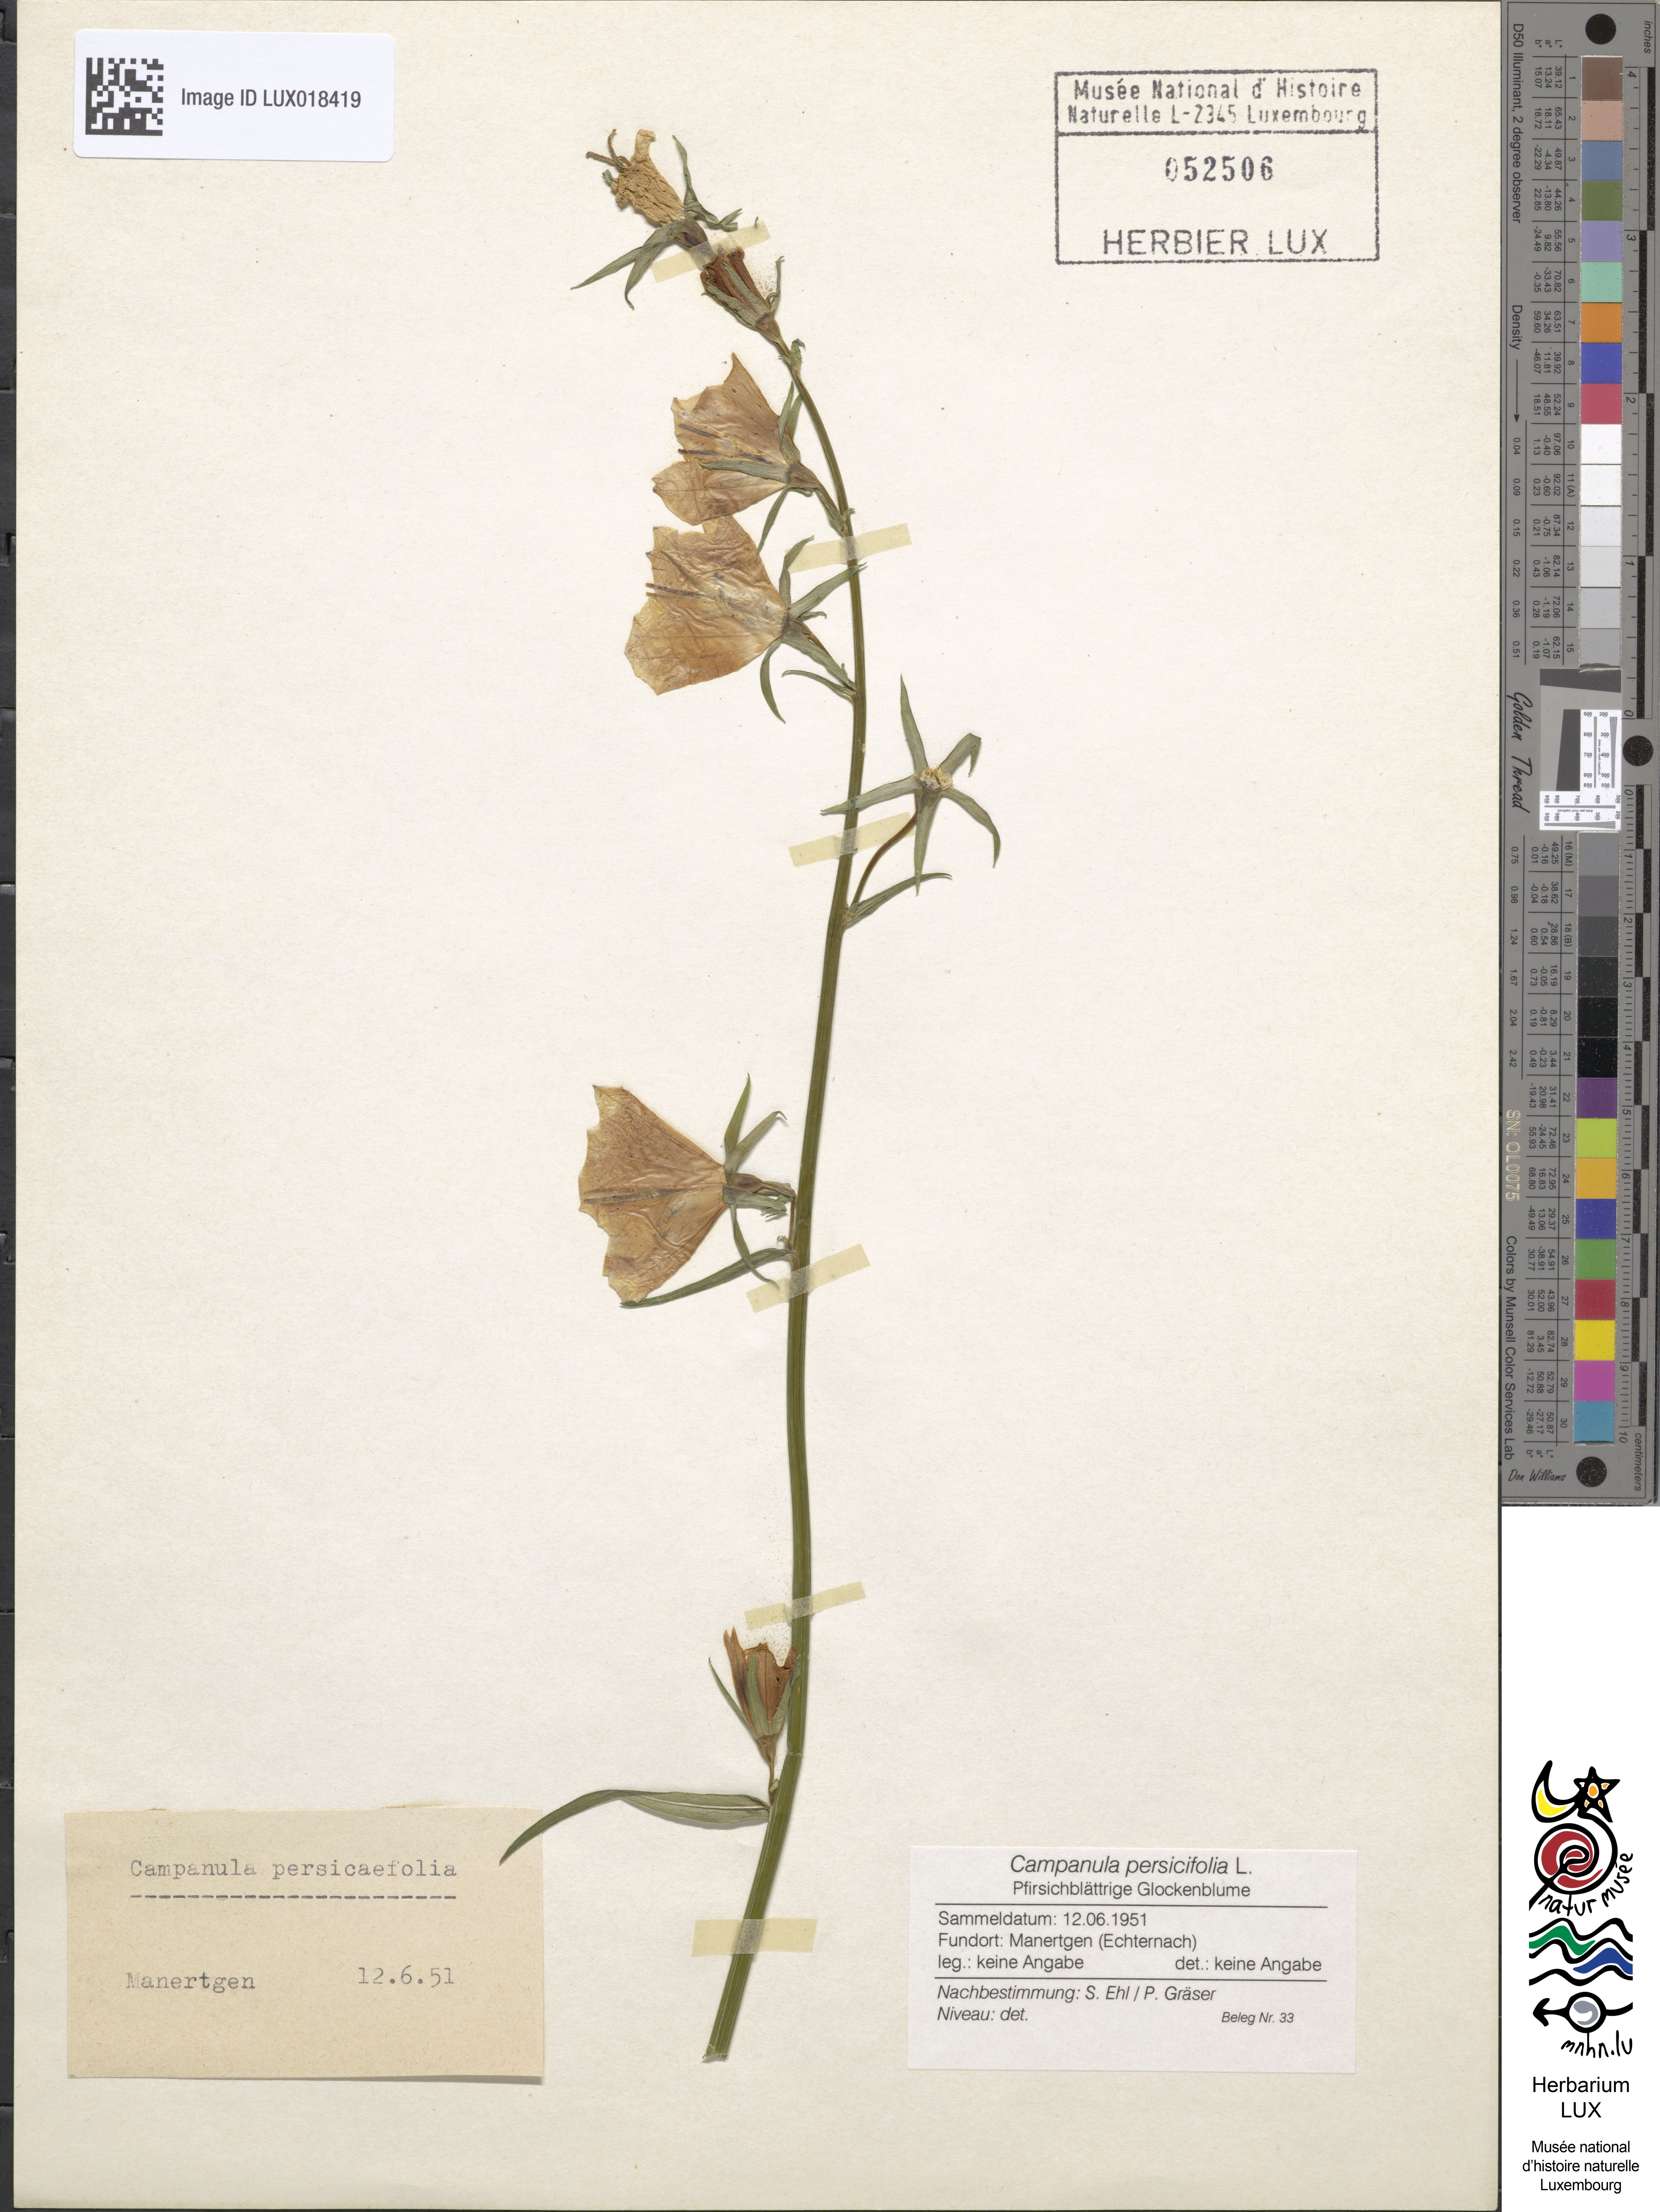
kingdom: Plantae
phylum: Tracheophyta
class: Magnoliopsida
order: Asterales
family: Campanulaceae
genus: Campanula
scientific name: Campanula persicifolia
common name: Peach-leaved bellflower
